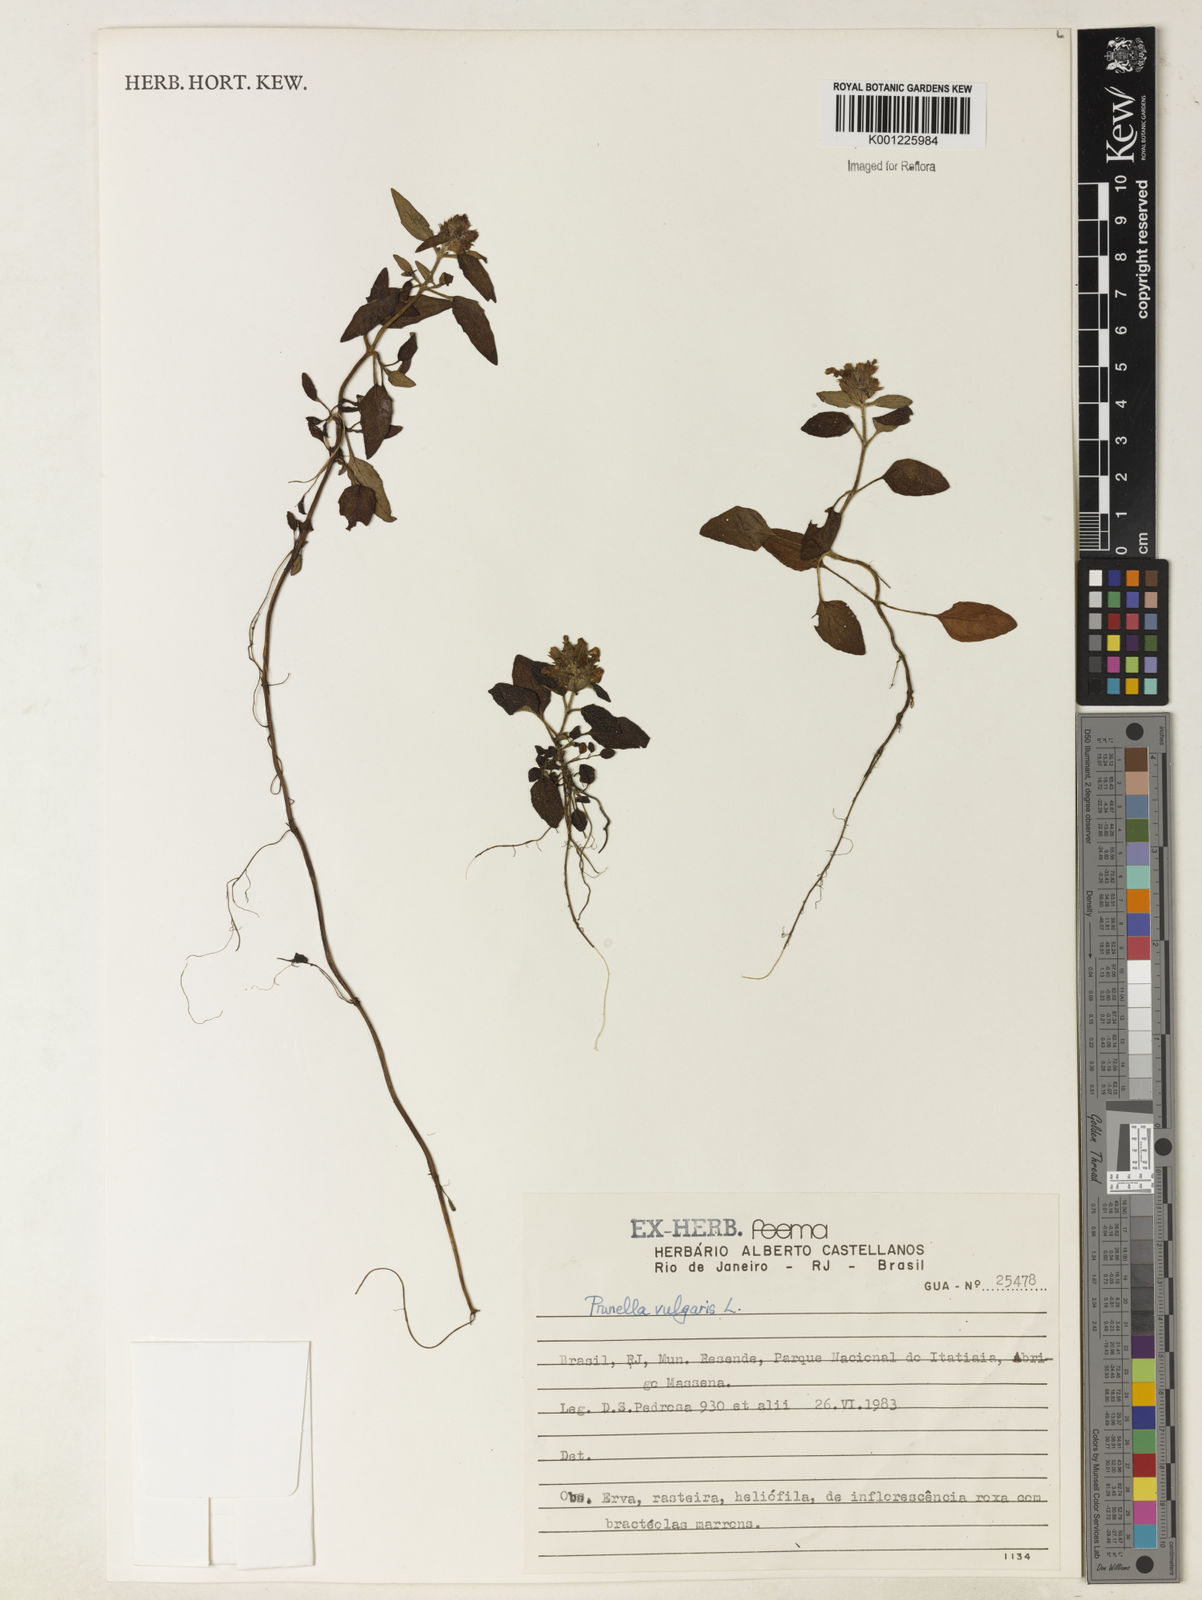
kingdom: Plantae
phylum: Tracheophyta
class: Magnoliopsida
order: Lamiales
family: Lamiaceae
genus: Prunella
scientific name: Prunella vulgaris
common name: Heal-all
